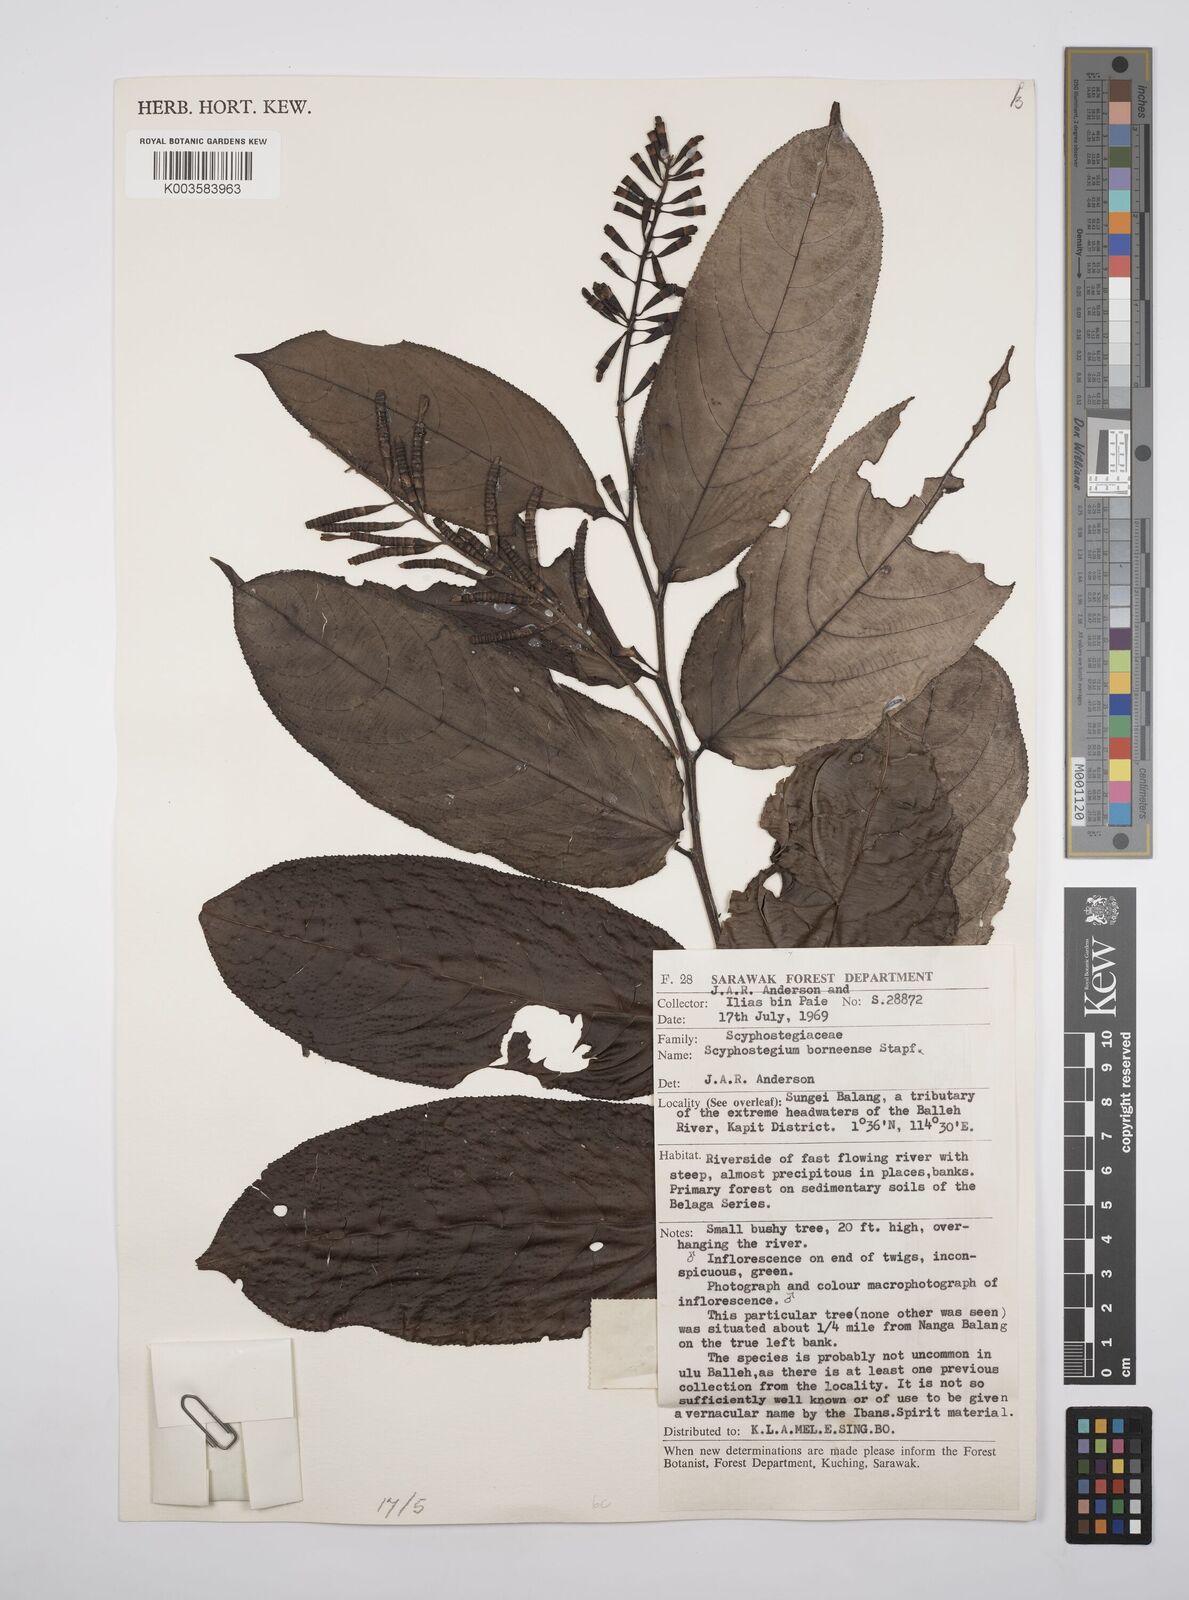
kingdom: Plantae
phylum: Tracheophyta
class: Magnoliopsida
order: Malpighiales
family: Salicaceae
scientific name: Salicaceae
